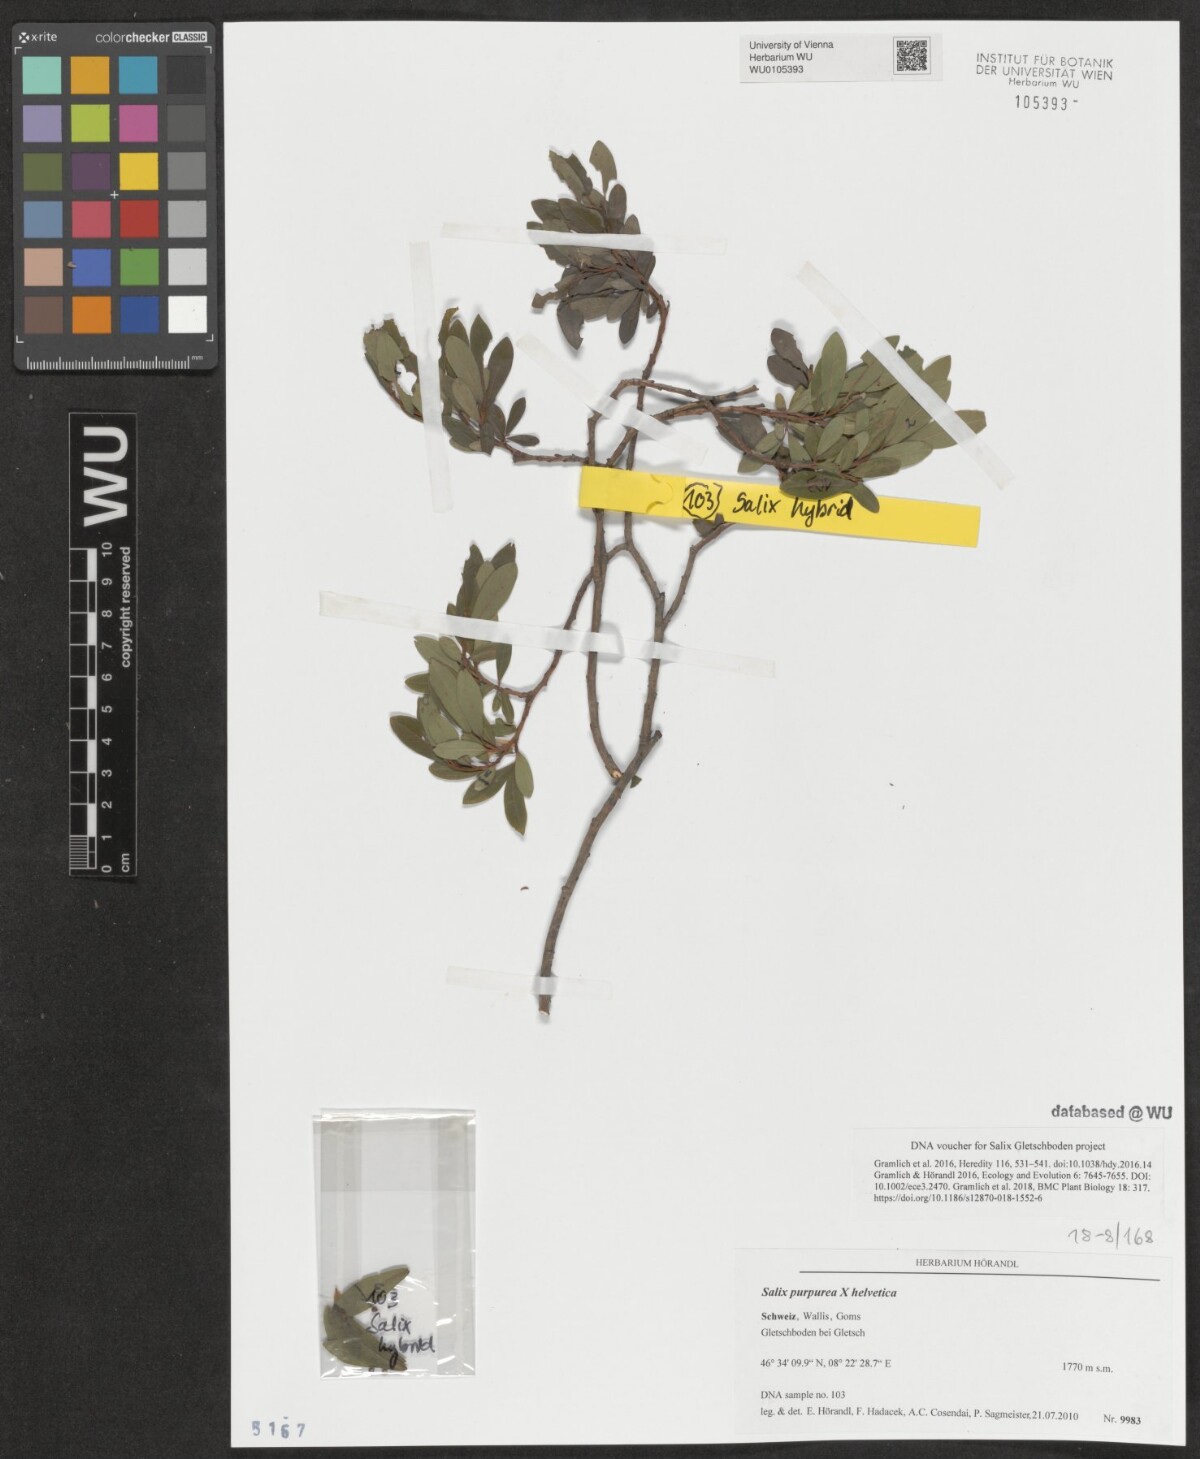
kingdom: Plantae
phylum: Tracheophyta
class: Magnoliopsida
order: Malpighiales
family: Salicaceae
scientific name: Salicaceae
